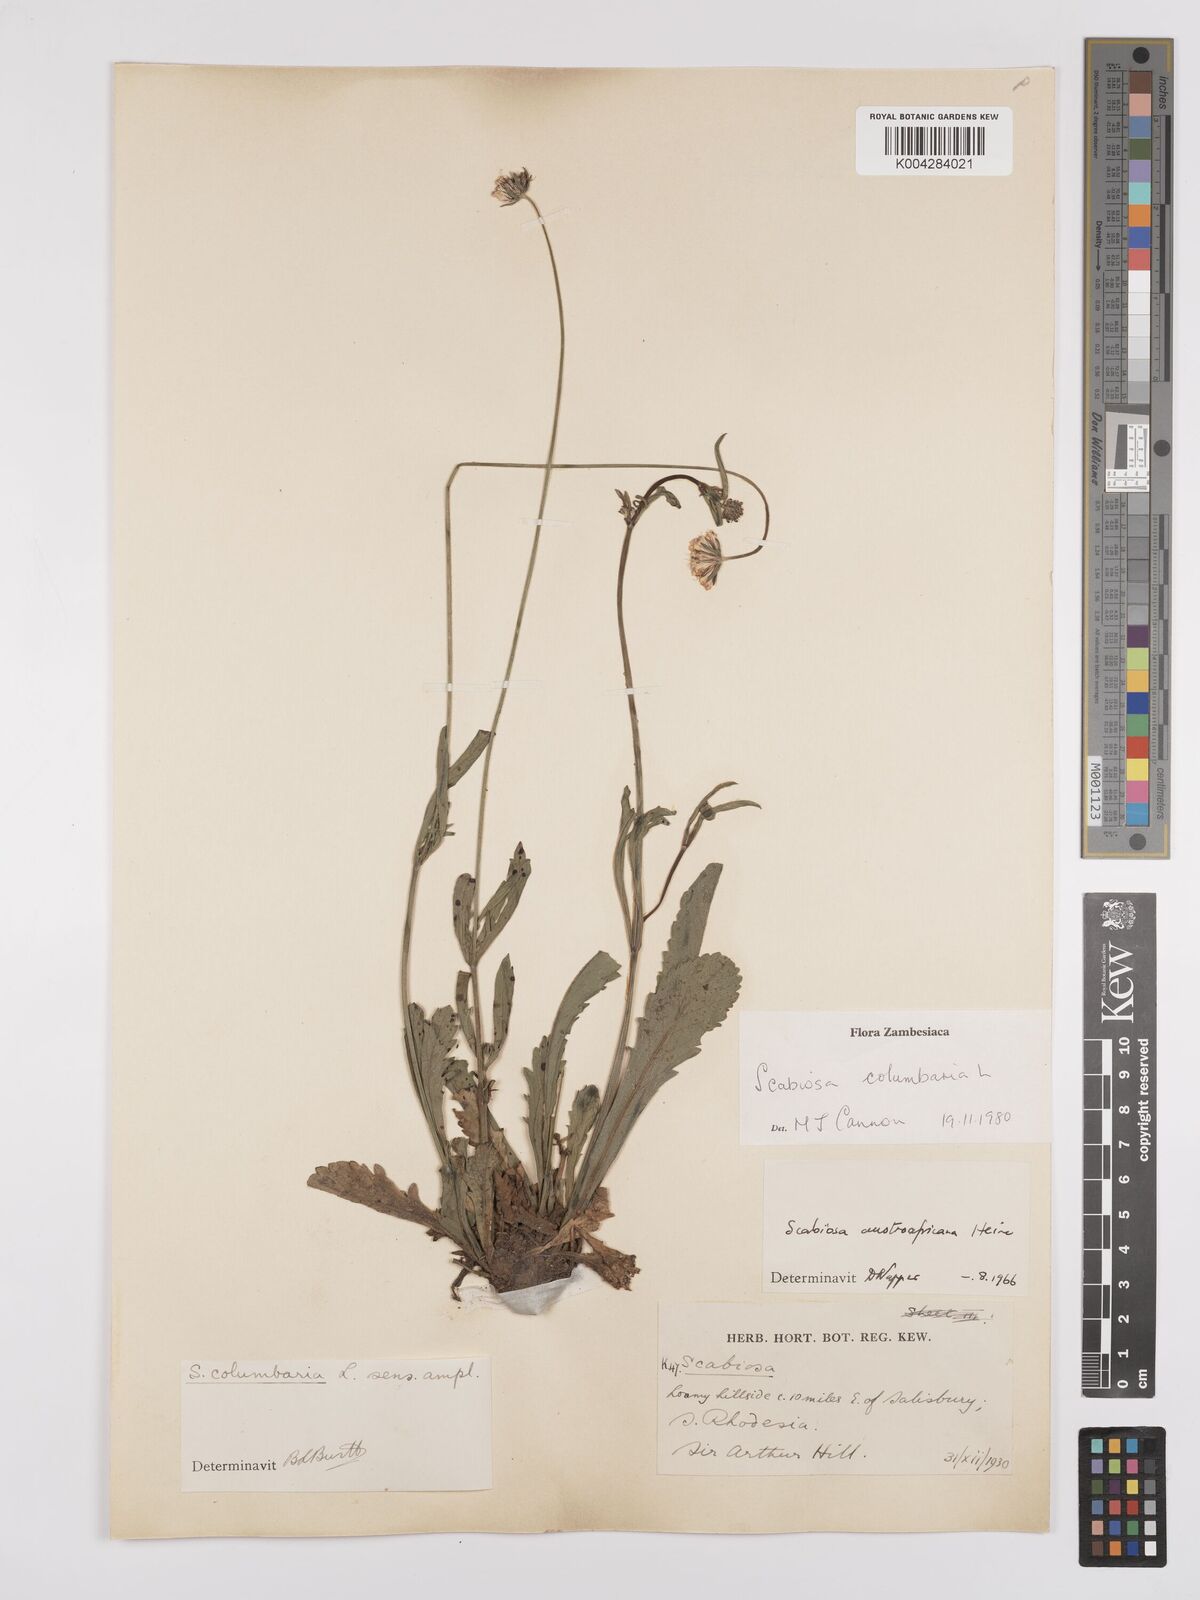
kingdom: Plantae
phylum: Tracheophyta
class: Magnoliopsida
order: Dipsacales
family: Caprifoliaceae
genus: Scabiosa
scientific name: Scabiosa austroafricana
